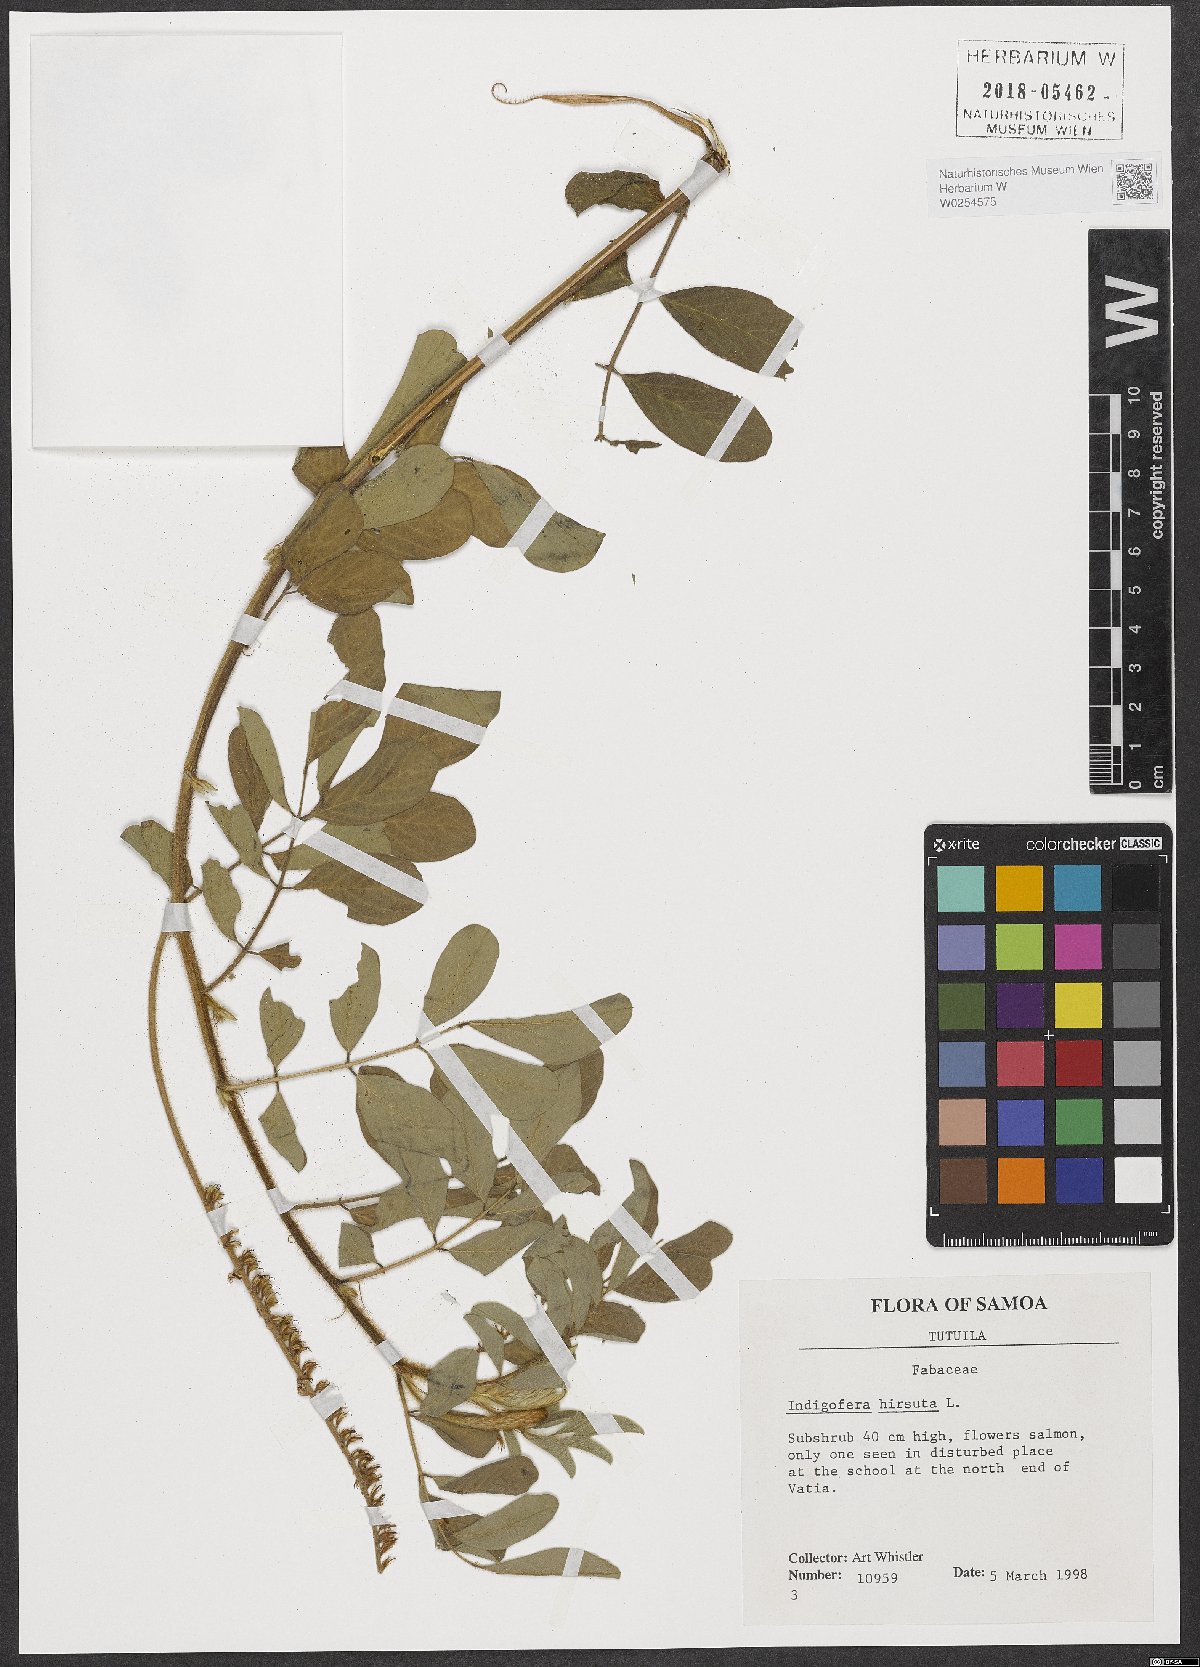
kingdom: Plantae
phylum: Tracheophyta
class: Magnoliopsida
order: Fabales
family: Fabaceae
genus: Indigofera
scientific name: Indigofera hirsuta
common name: Hairy indigo
